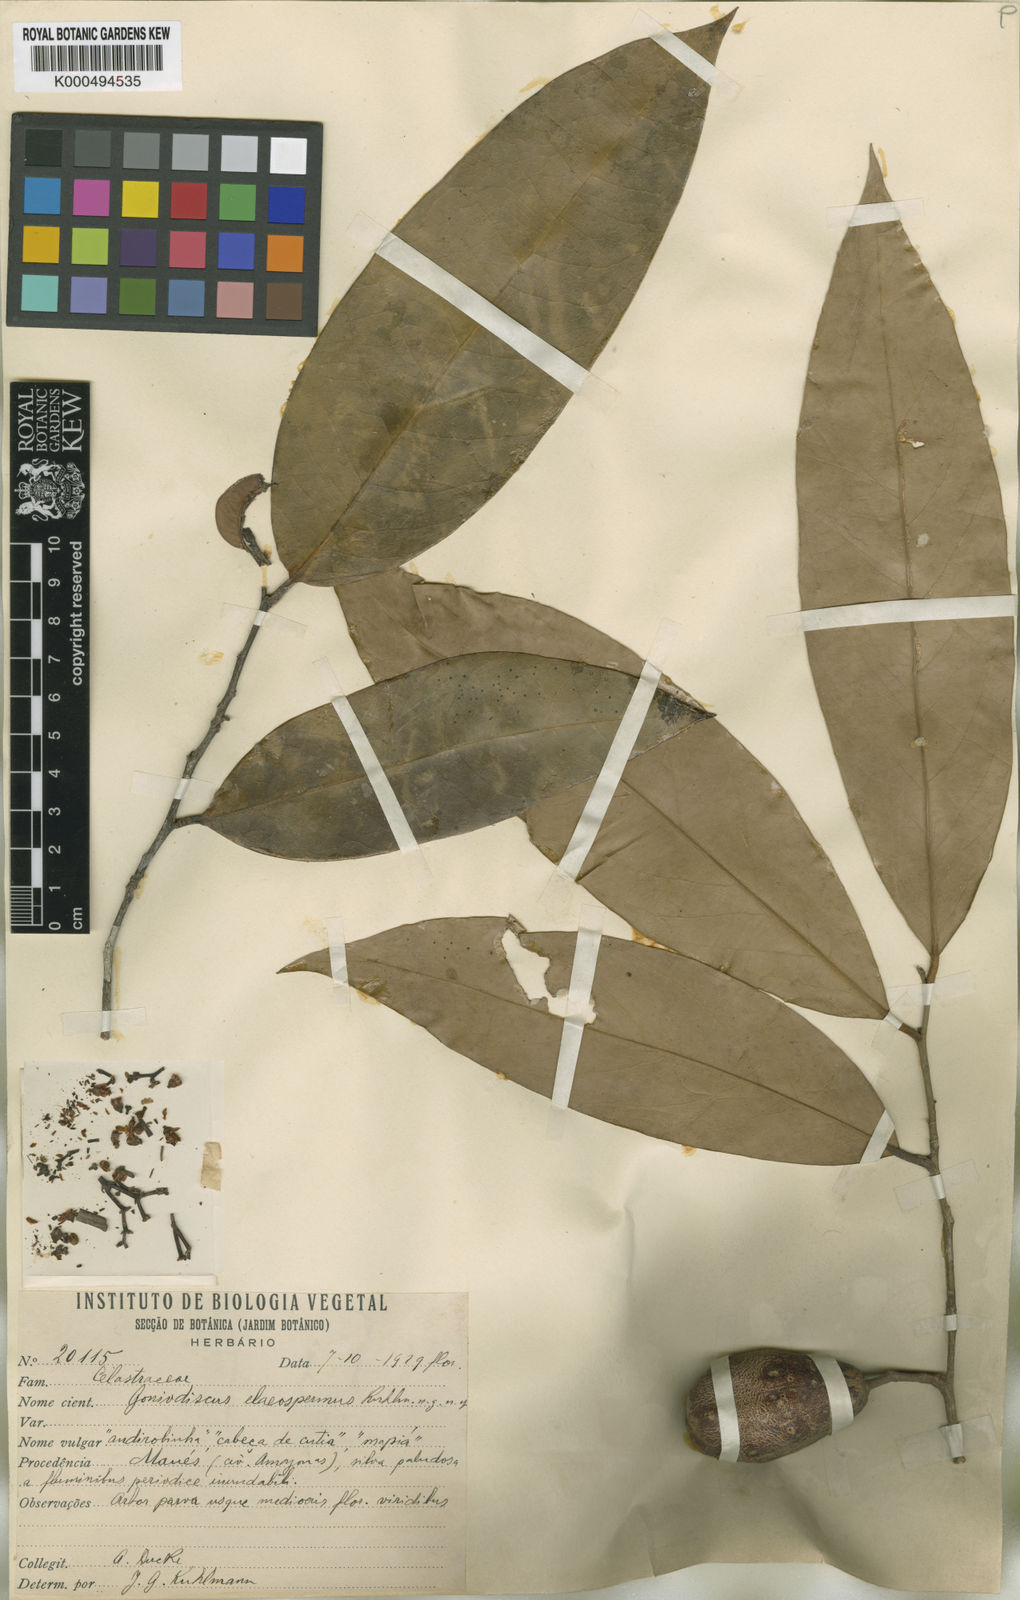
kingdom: Plantae
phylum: Tracheophyta
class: Magnoliopsida
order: Celastrales
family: Celastraceae
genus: Goniodiscus
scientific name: Goniodiscus elaeospermus
